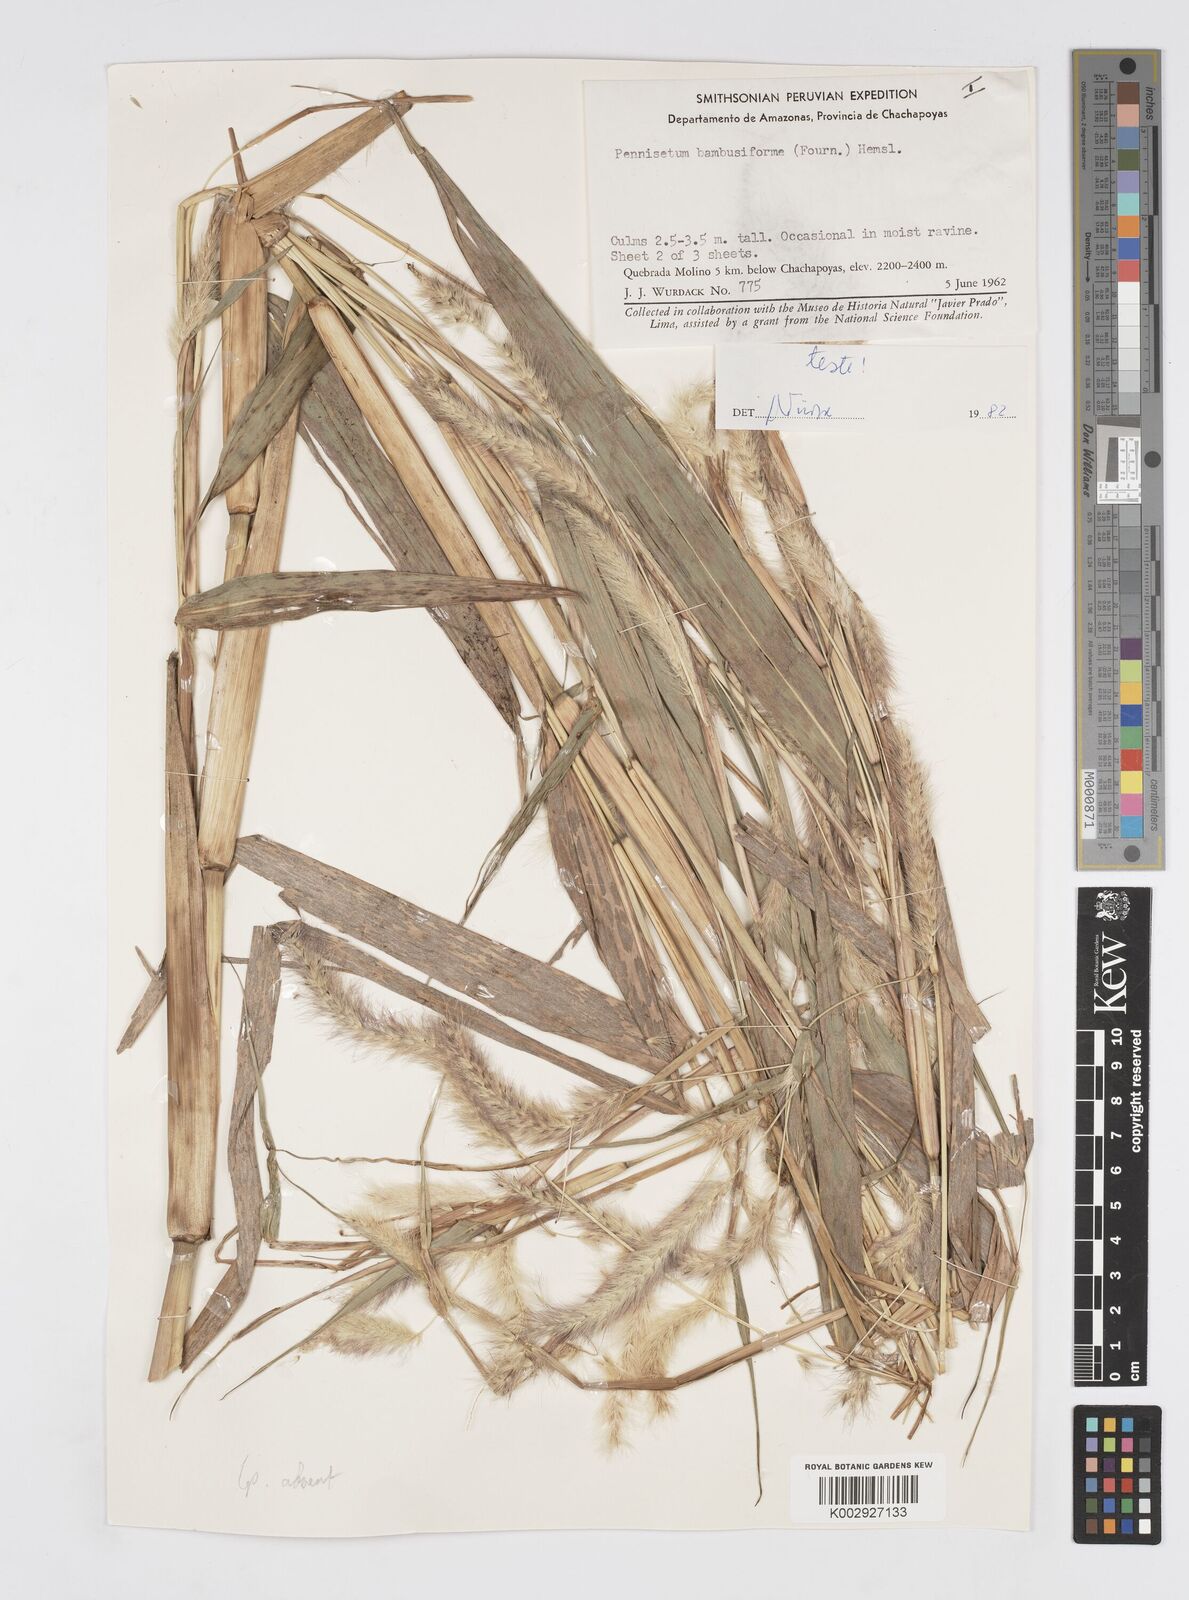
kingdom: Plantae
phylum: Tracheophyta
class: Liliopsida
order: Poales
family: Poaceae
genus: Cenchrus
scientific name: Cenchrus Pennisetum spec
